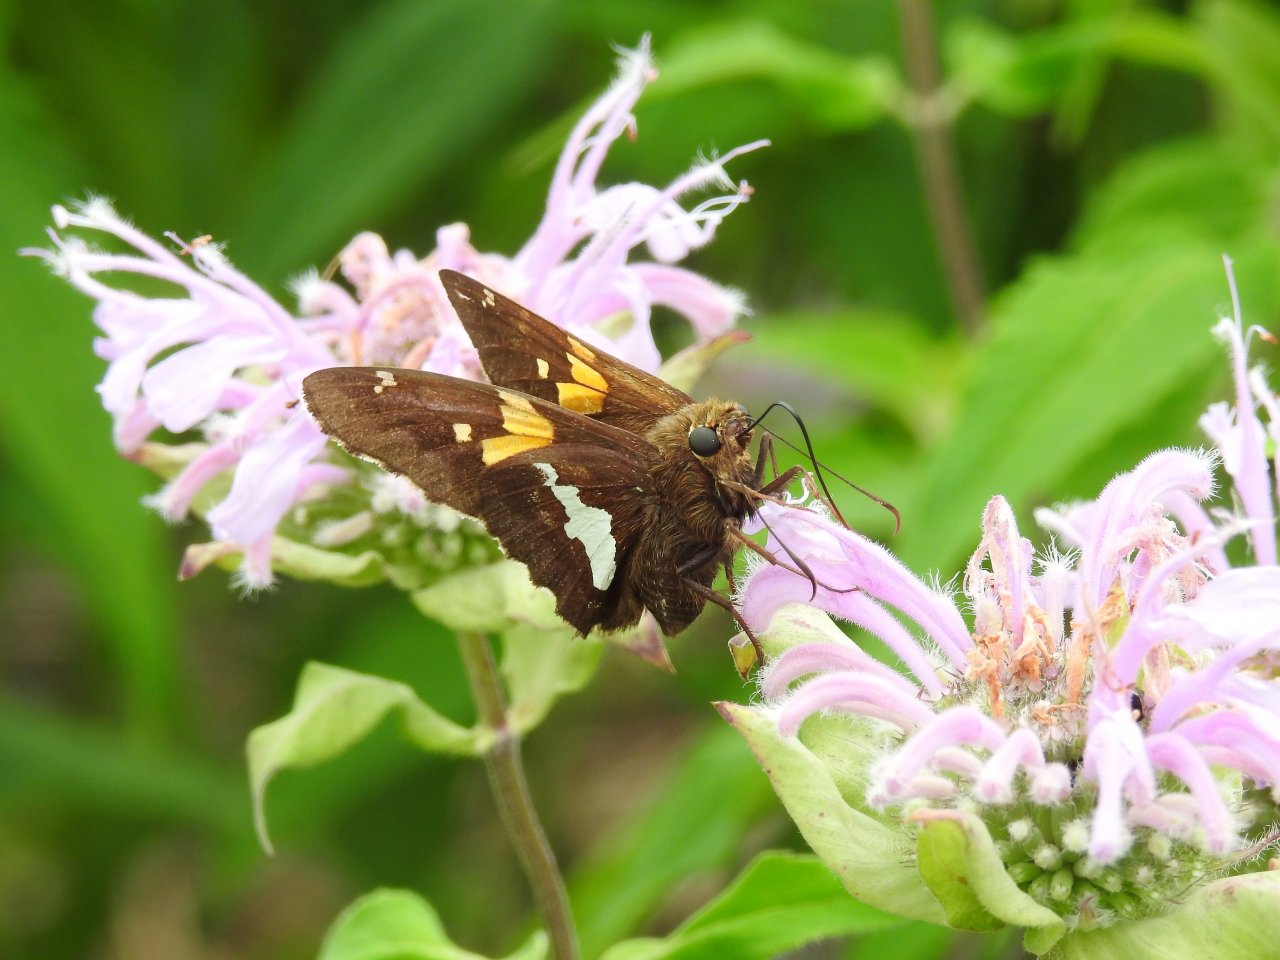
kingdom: Animalia
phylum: Arthropoda
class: Insecta
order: Lepidoptera
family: Hesperiidae
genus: Epargyreus
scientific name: Epargyreus clarus
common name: Silver-spotted Skipper
